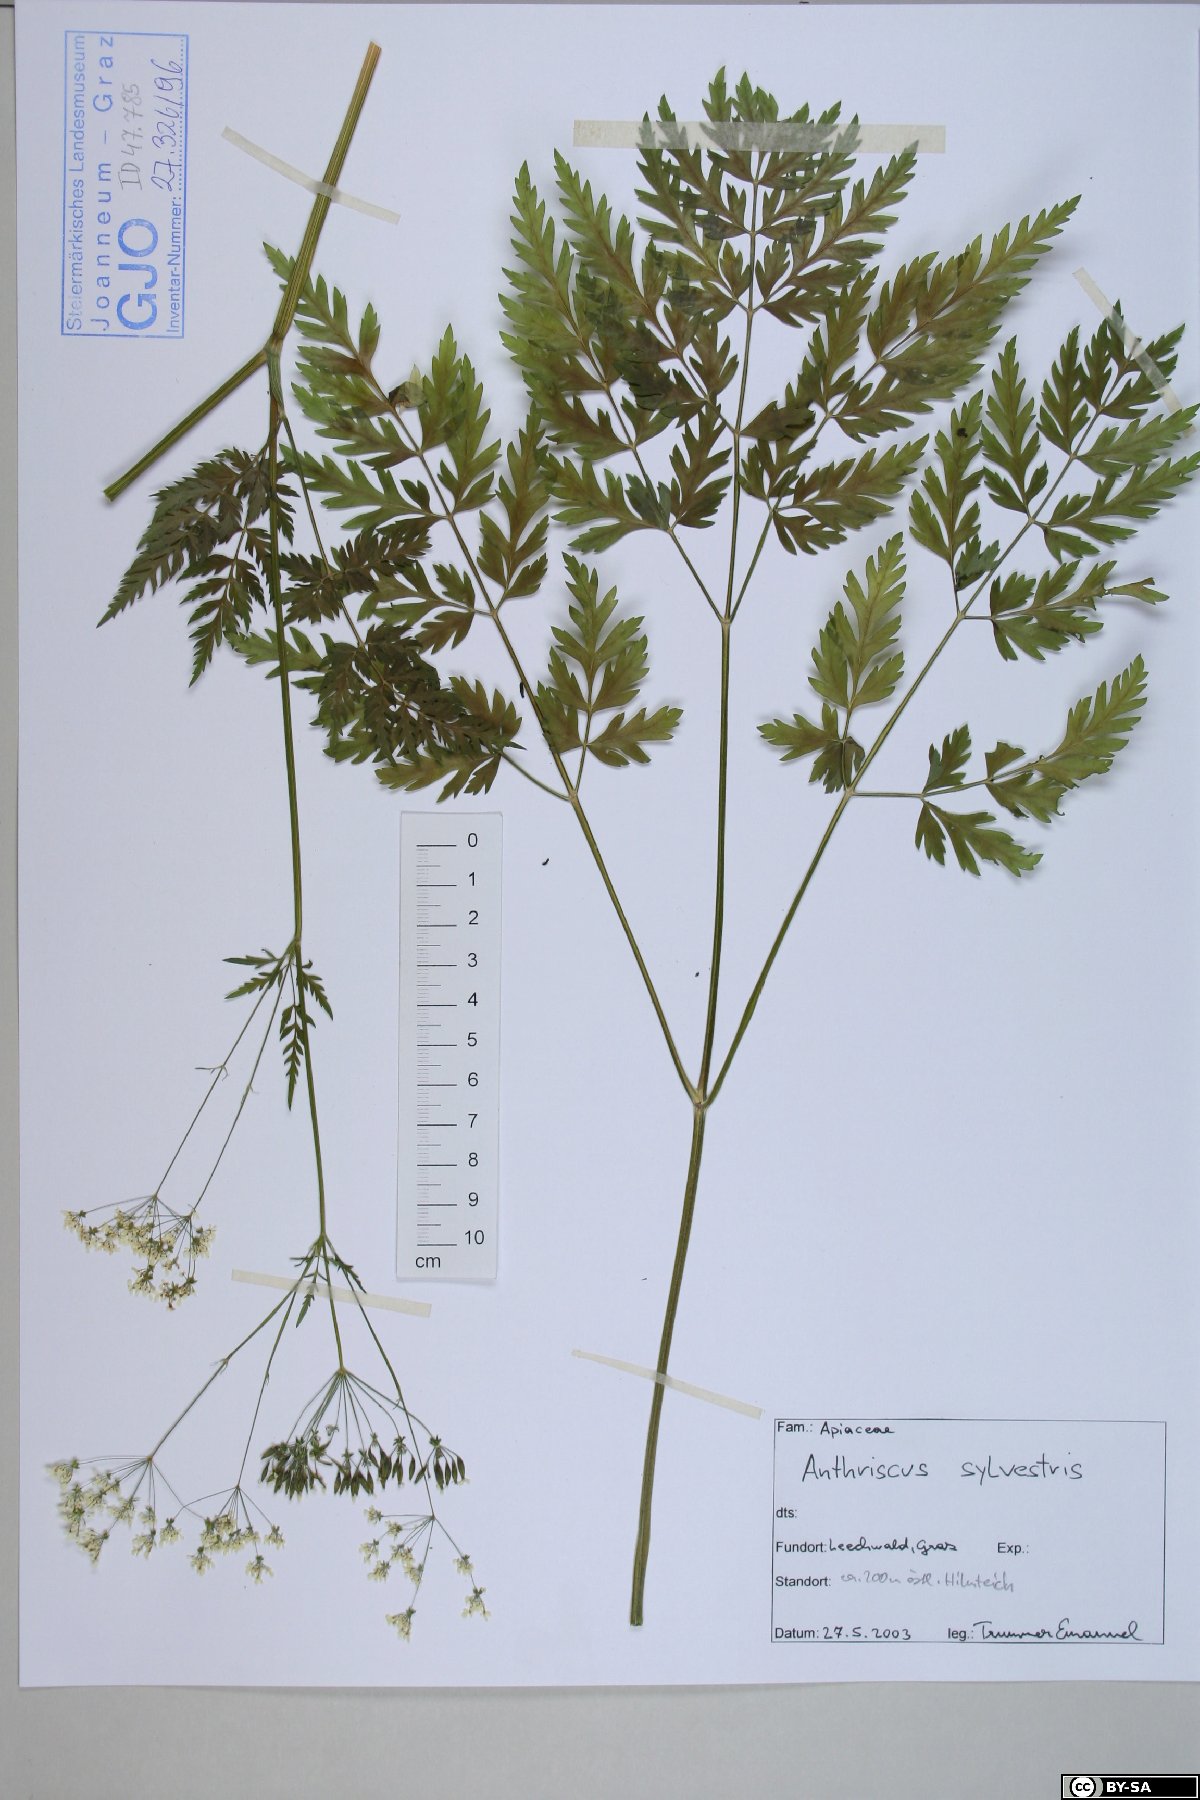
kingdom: Plantae
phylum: Tracheophyta
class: Magnoliopsida
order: Apiales
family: Apiaceae
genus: Anthriscus
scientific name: Anthriscus sylvestris
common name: Cow parsley
